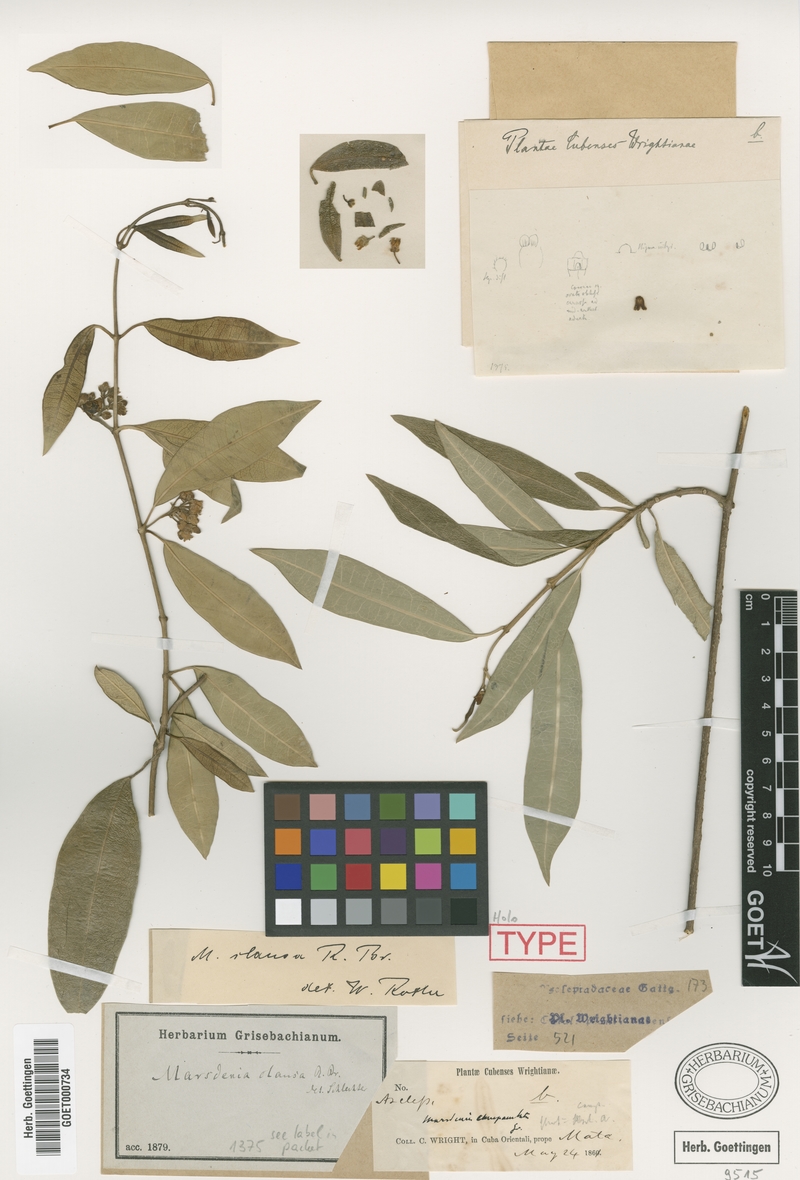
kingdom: Plantae
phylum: Tracheophyta
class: Magnoliopsida
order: Gentianales
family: Apocynaceae
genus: Ruehssia
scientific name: Ruehssia clausa
